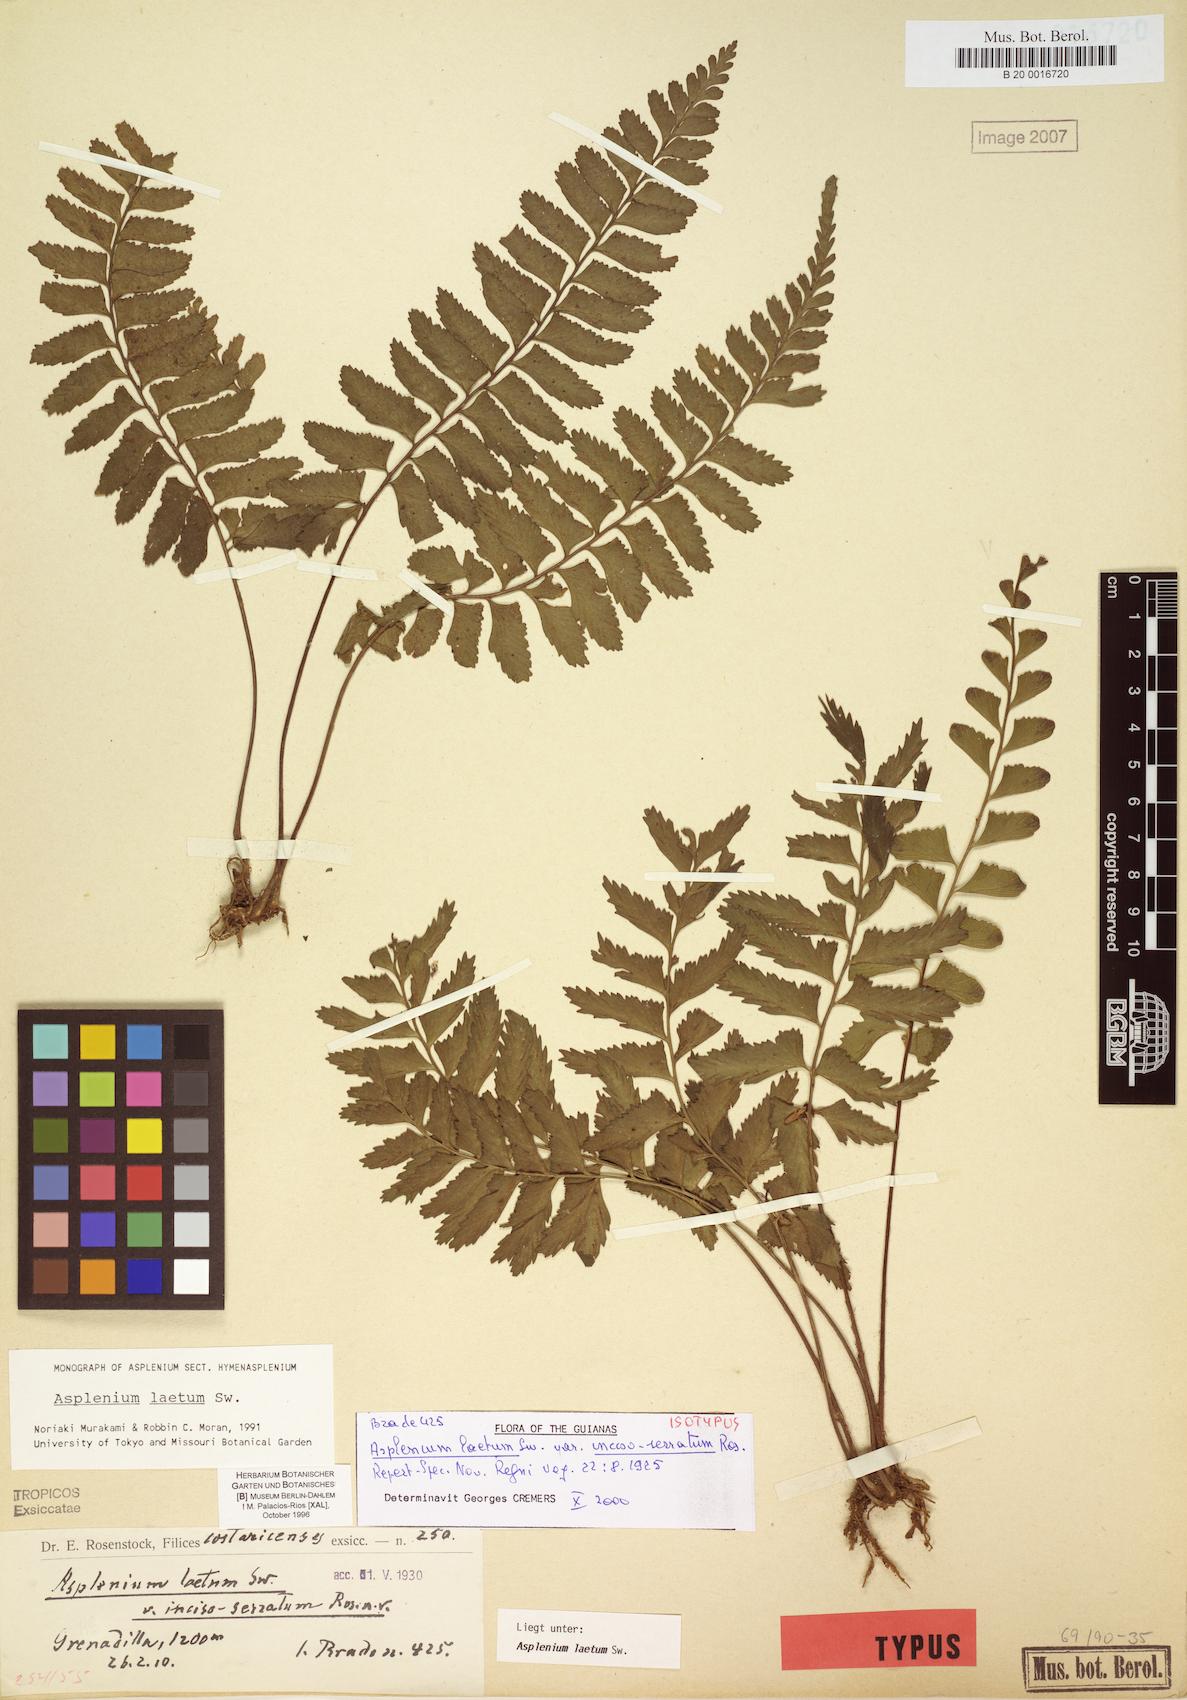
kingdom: Plantae
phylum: Tracheophyta
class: Polypodiopsida
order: Polypodiales
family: Aspleniaceae
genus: Hymenasplenium
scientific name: Hymenasplenium incisoserratum
